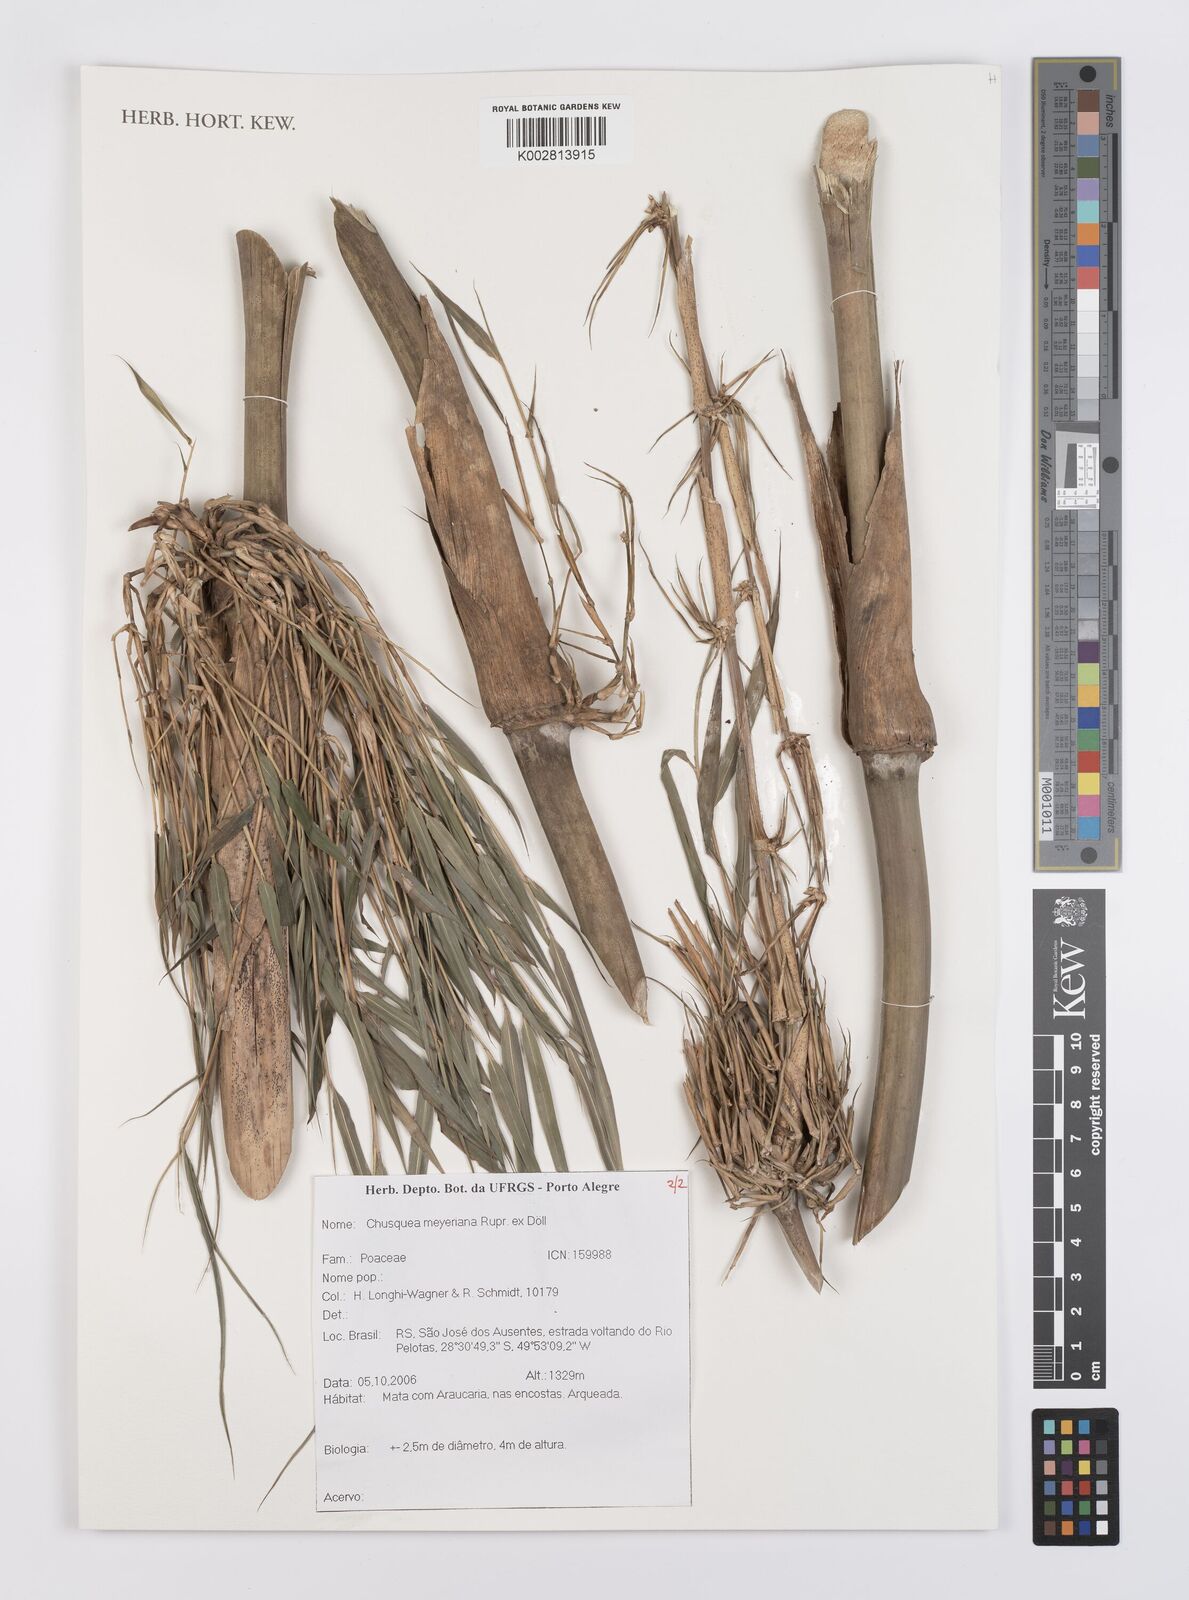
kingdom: Plantae
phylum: Tracheophyta
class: Liliopsida
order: Poales
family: Poaceae
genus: Chusquea
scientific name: Chusquea meyeriana
